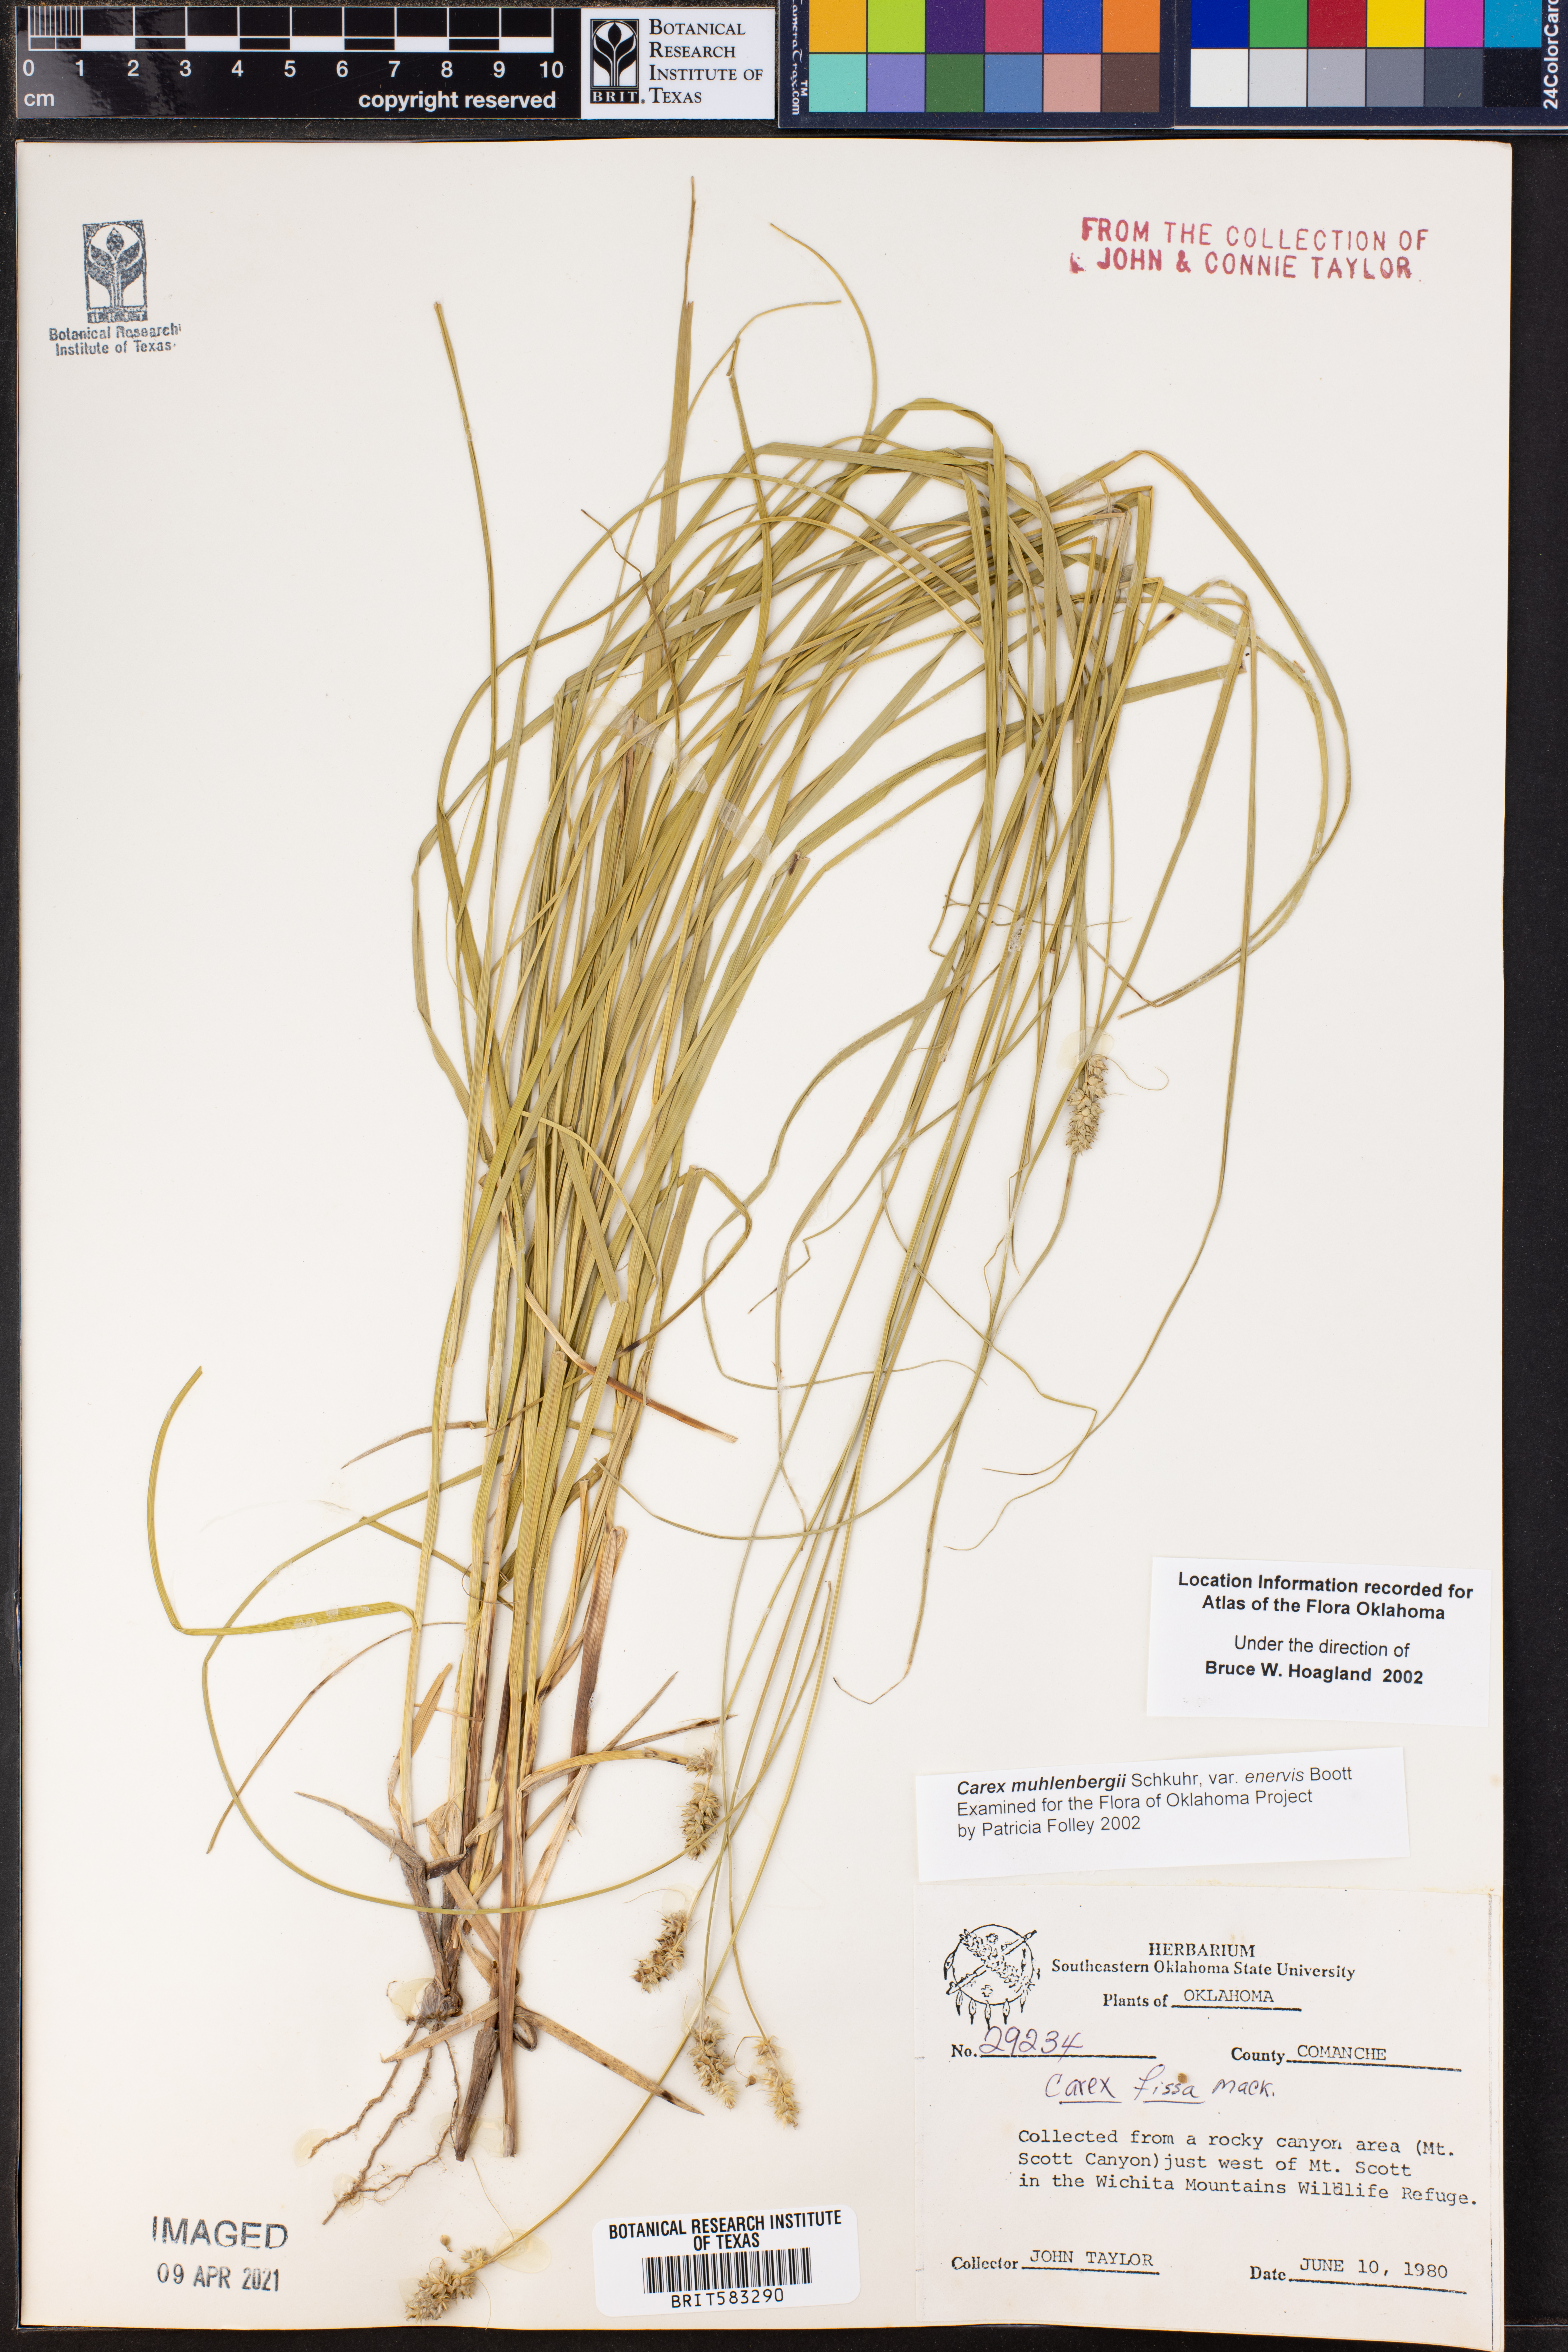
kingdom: Plantae
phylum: Tracheophyta
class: Liliopsida
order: Poales
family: Cyperaceae
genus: Carex
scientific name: Carex vulpinoidea
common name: American fox-sedge
